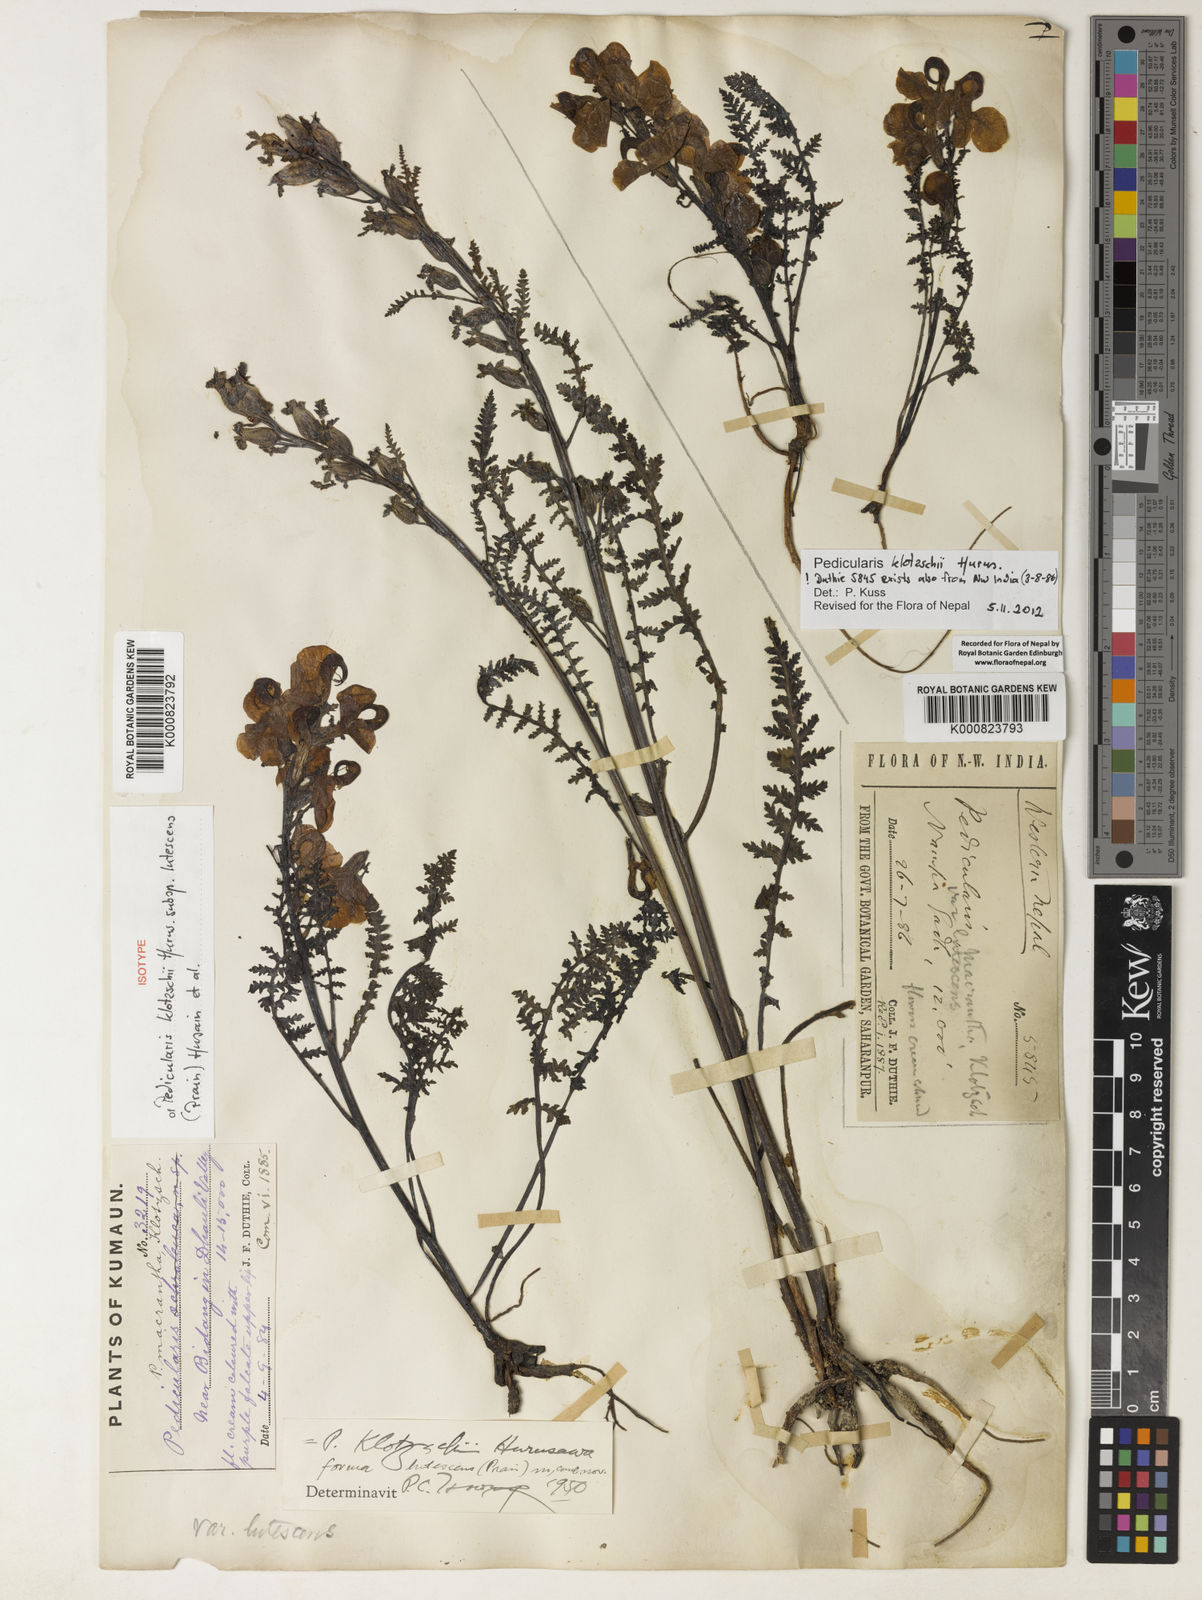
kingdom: Plantae
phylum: Tracheophyta
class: Magnoliopsida
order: Lamiales
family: Orobanchaceae
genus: Pedicularis
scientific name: Pedicularis
